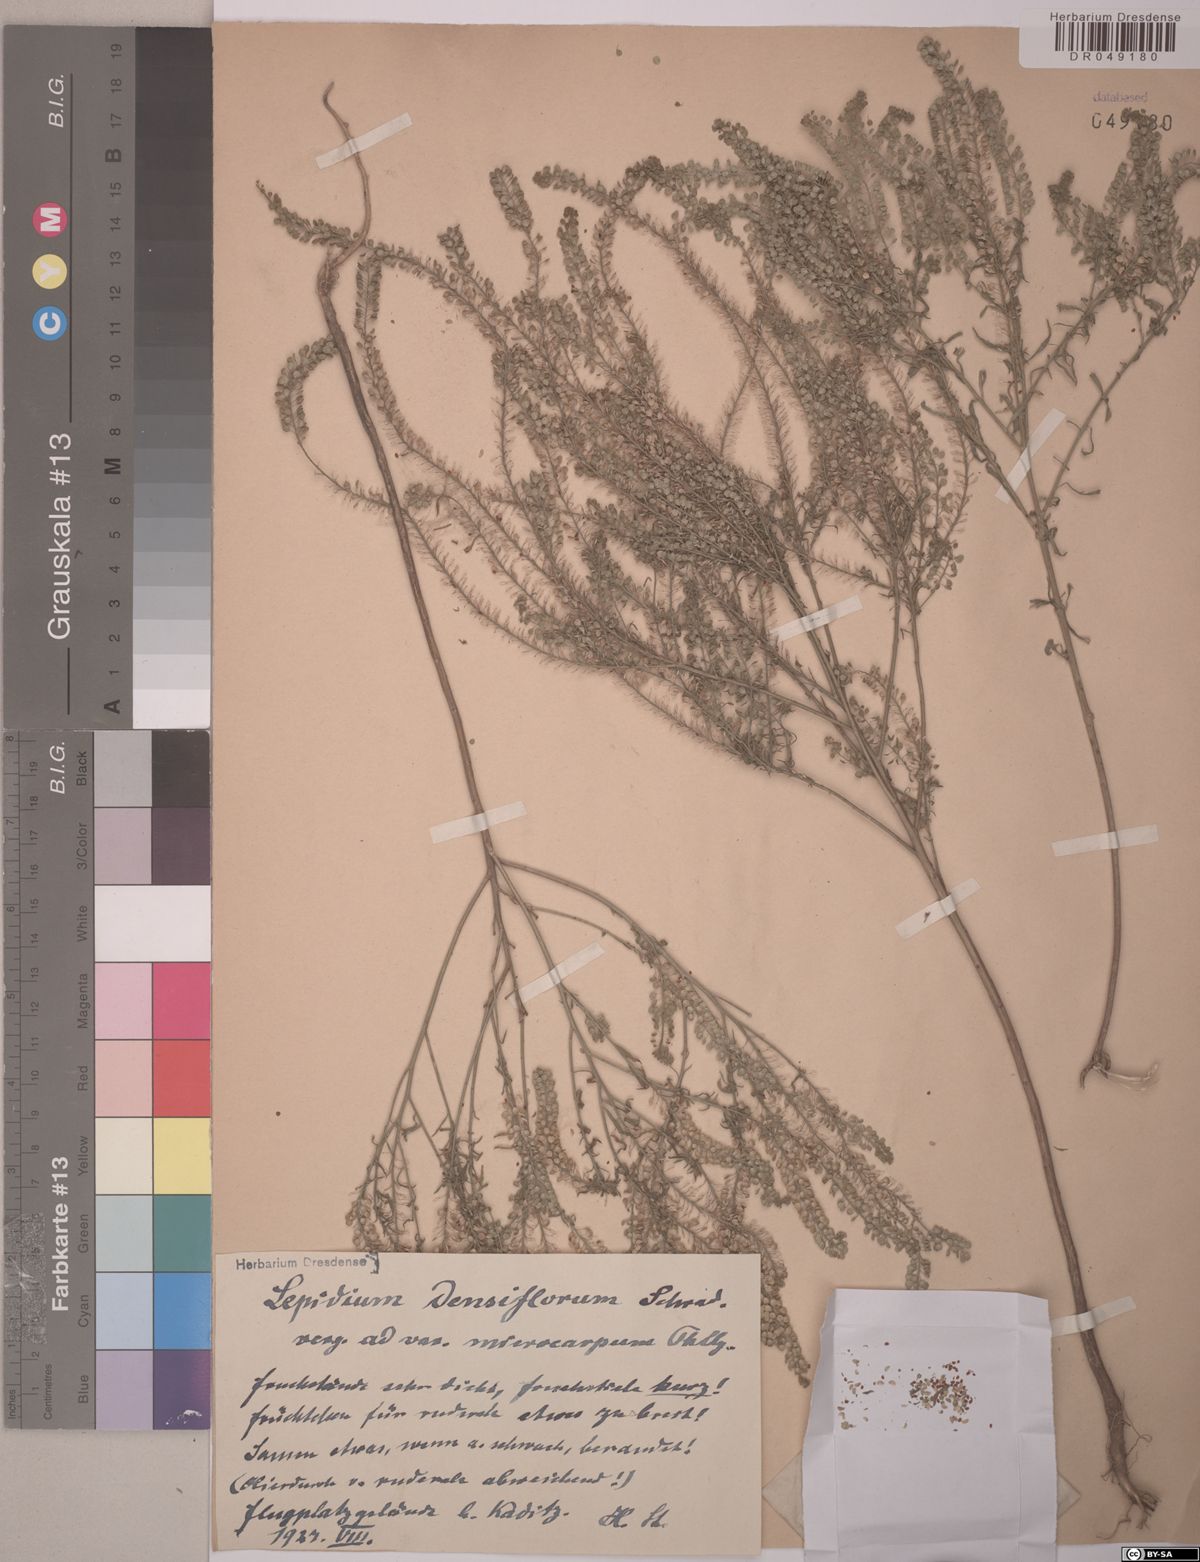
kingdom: Plantae
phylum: Tracheophyta
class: Magnoliopsida
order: Brassicales
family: Brassicaceae
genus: Lepidium
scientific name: Lepidium densiflorum
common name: Miner's pepperwort
